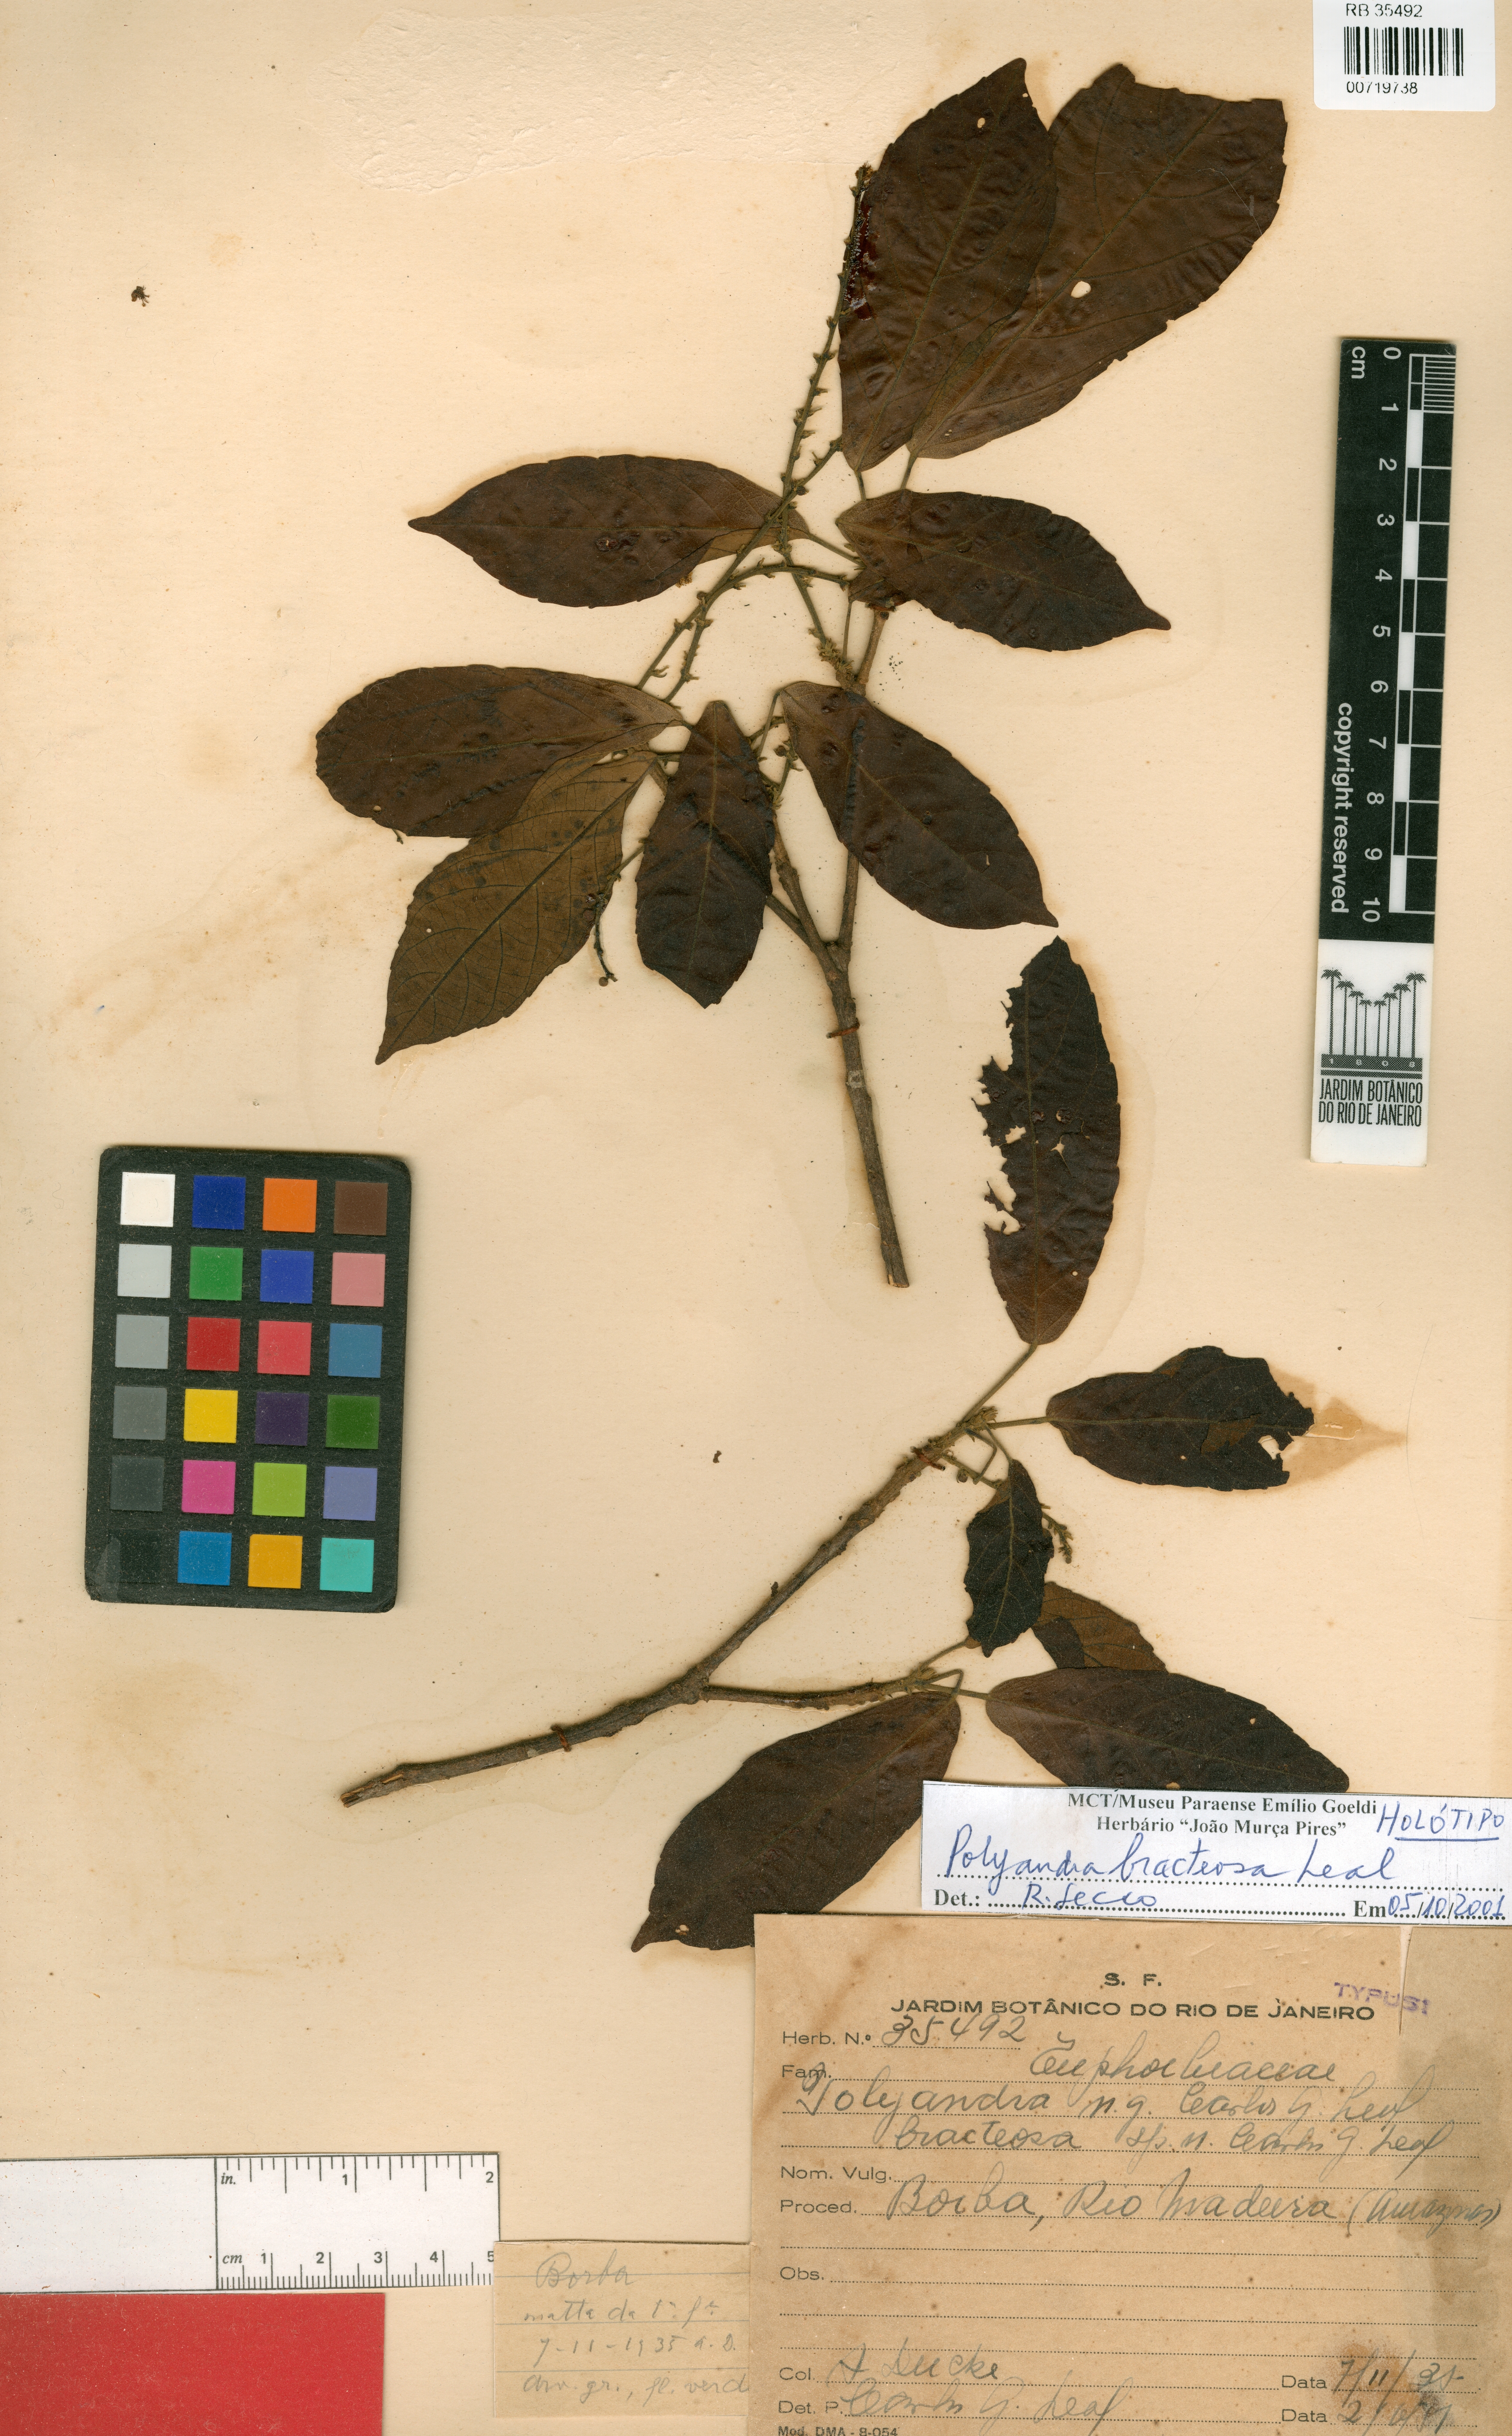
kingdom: Plantae
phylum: Tracheophyta
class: Magnoliopsida
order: Malpighiales
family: Euphorbiaceae
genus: Conceveiba
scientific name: Conceveiba praealta
